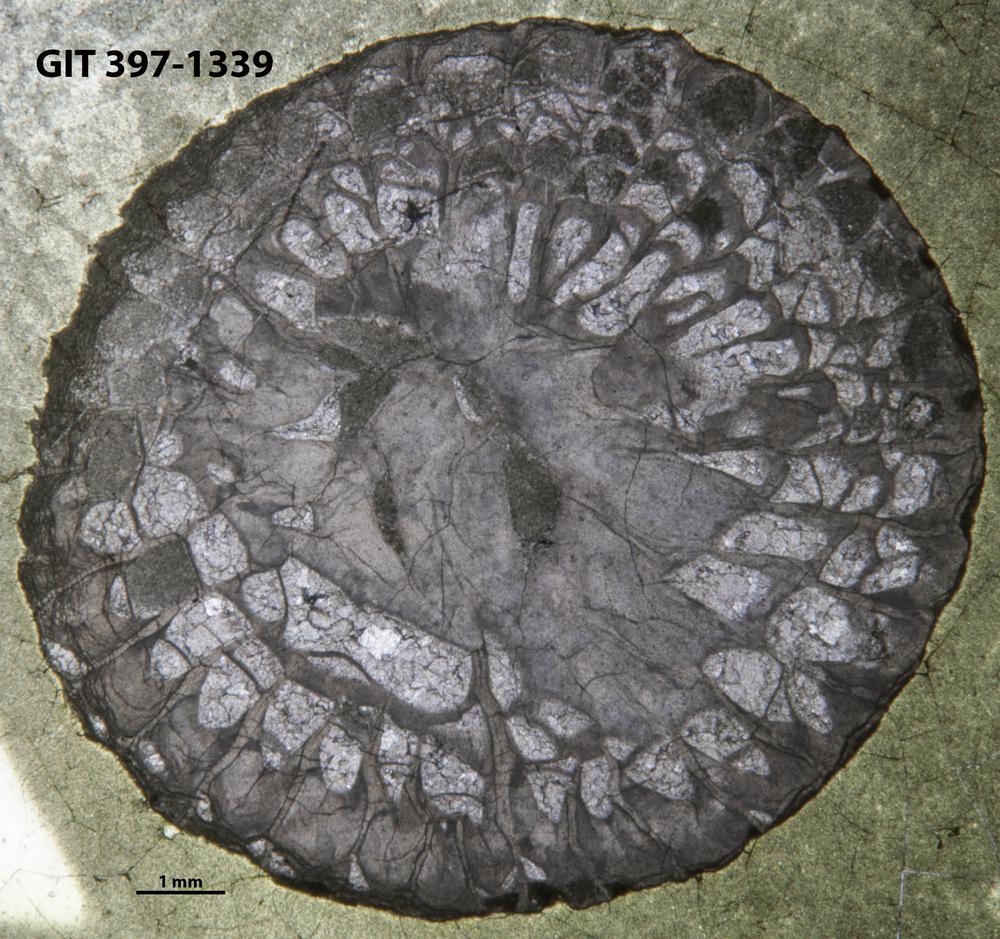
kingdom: Animalia
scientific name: Animalia
